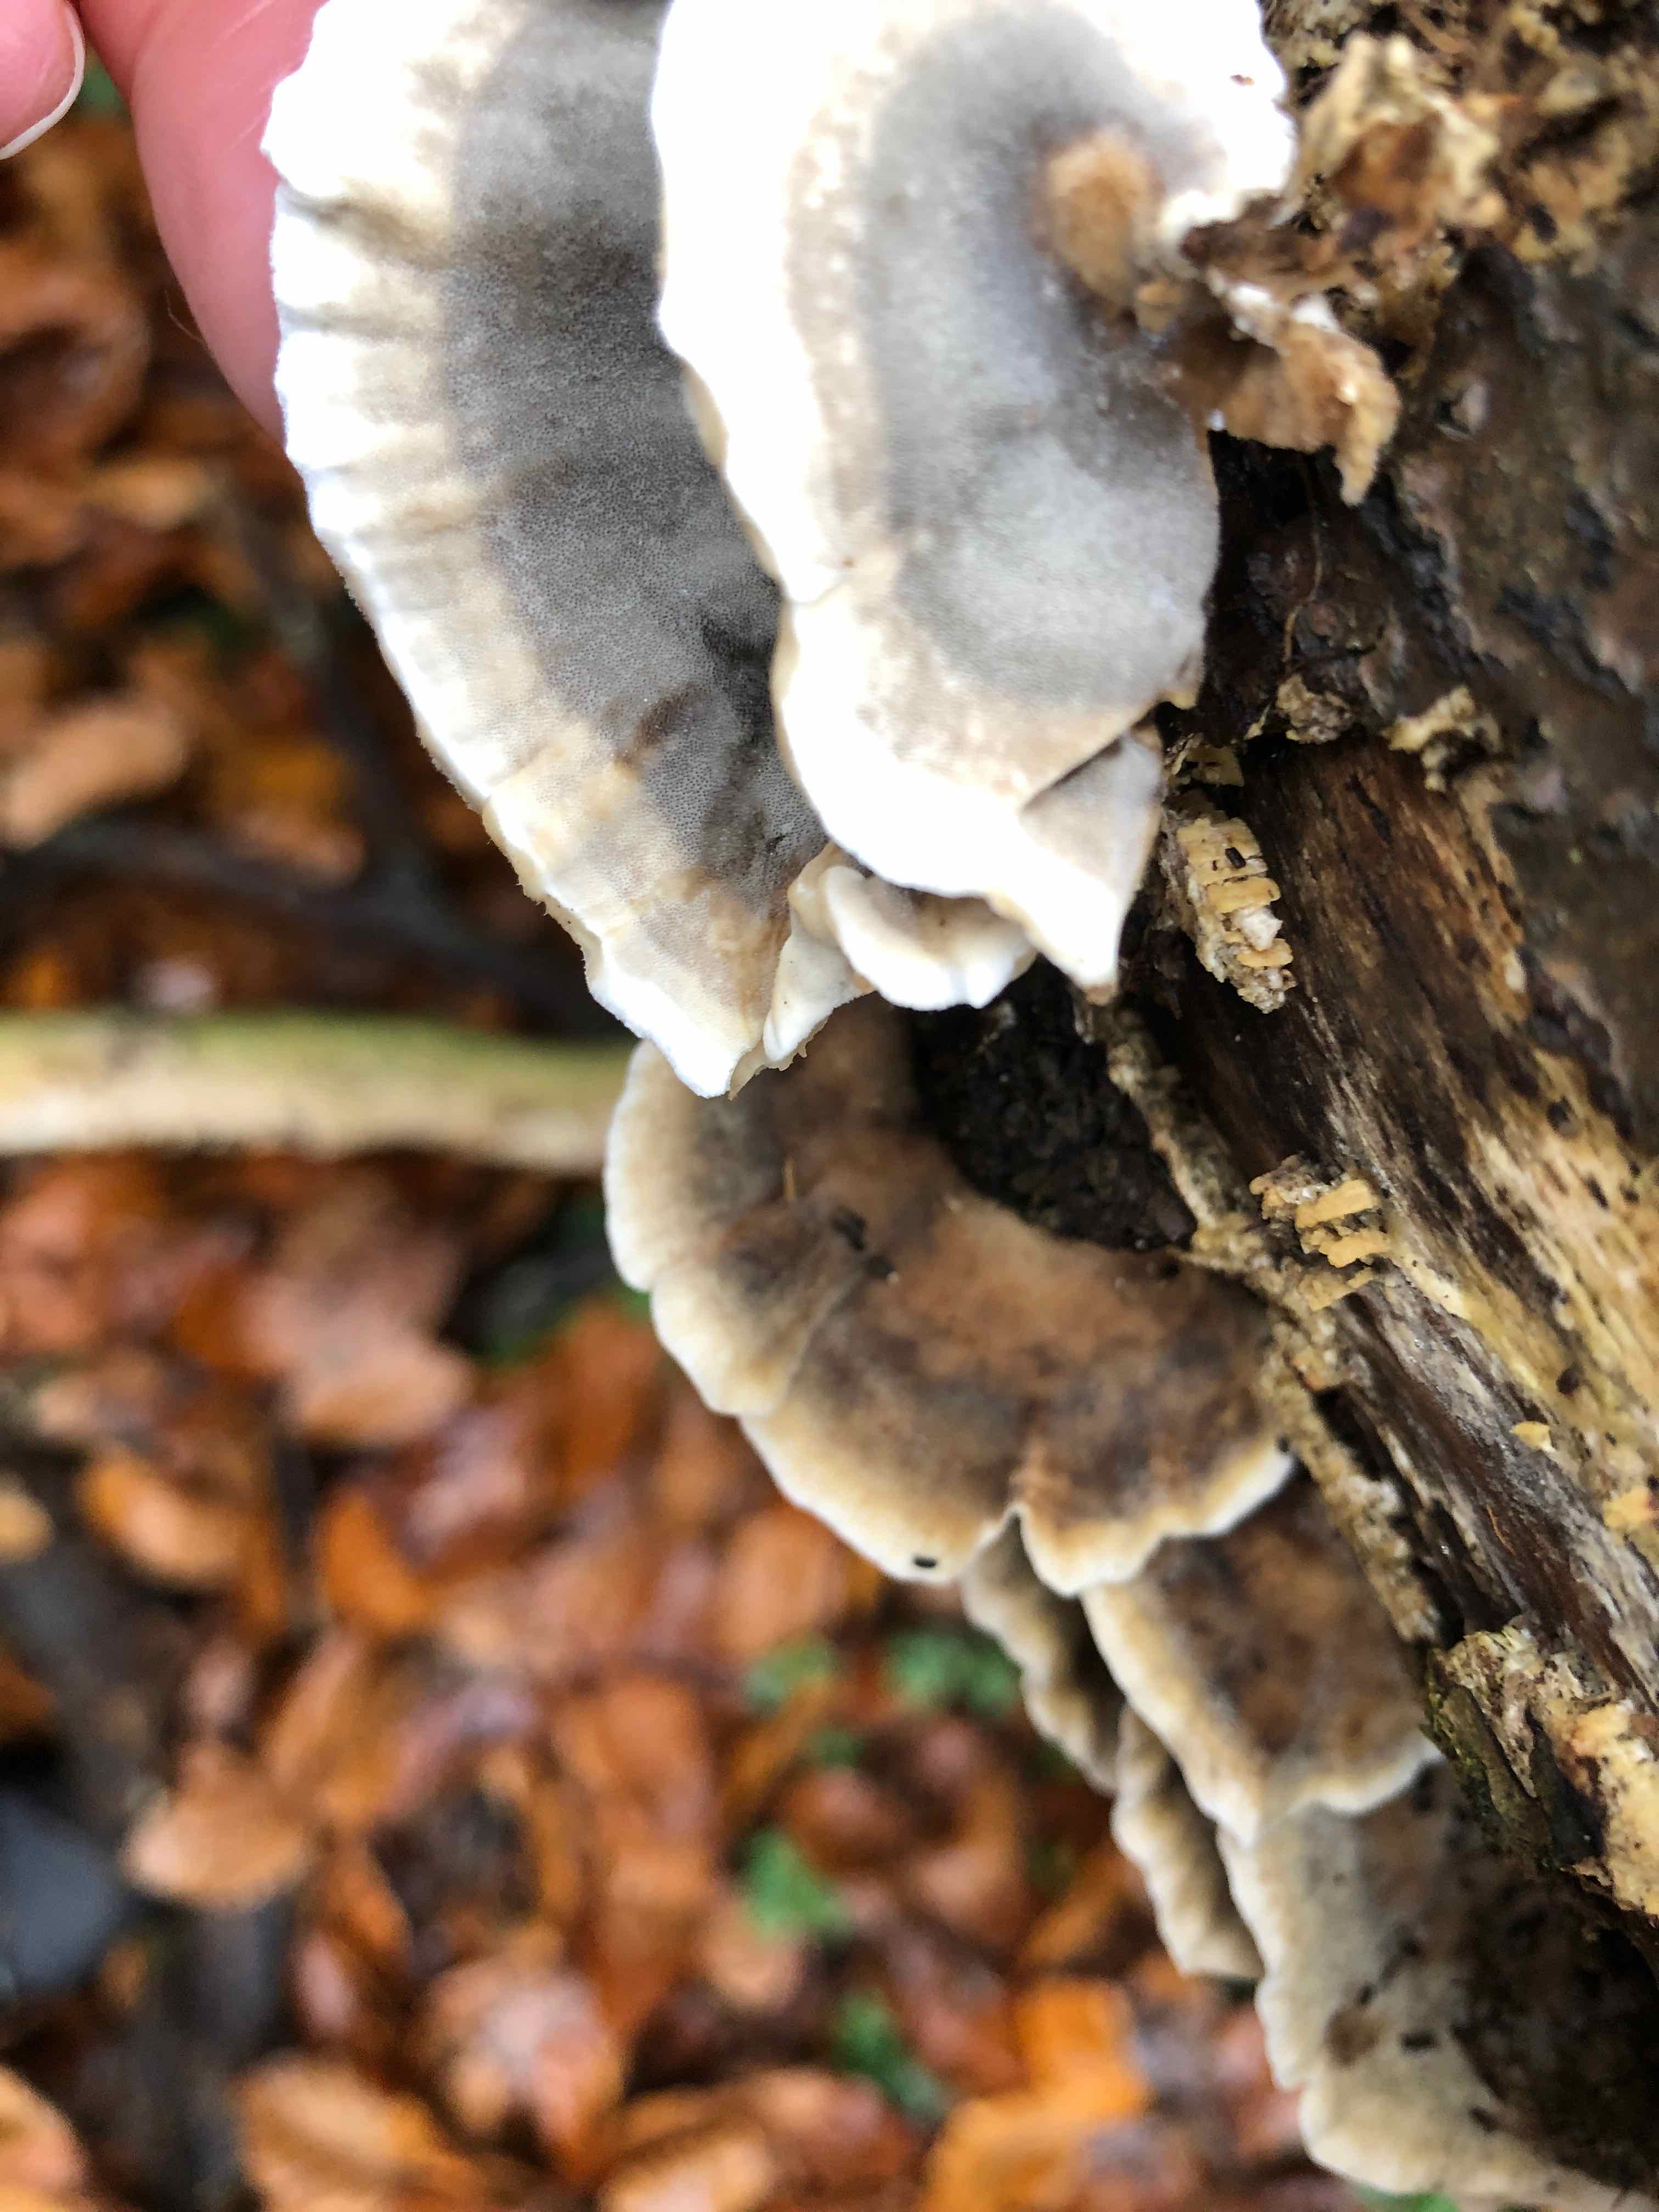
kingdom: Fungi
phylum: Basidiomycota
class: Agaricomycetes
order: Polyporales
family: Phanerochaetaceae
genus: Bjerkandera
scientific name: Bjerkandera adusta
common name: sveden sodporesvamp
